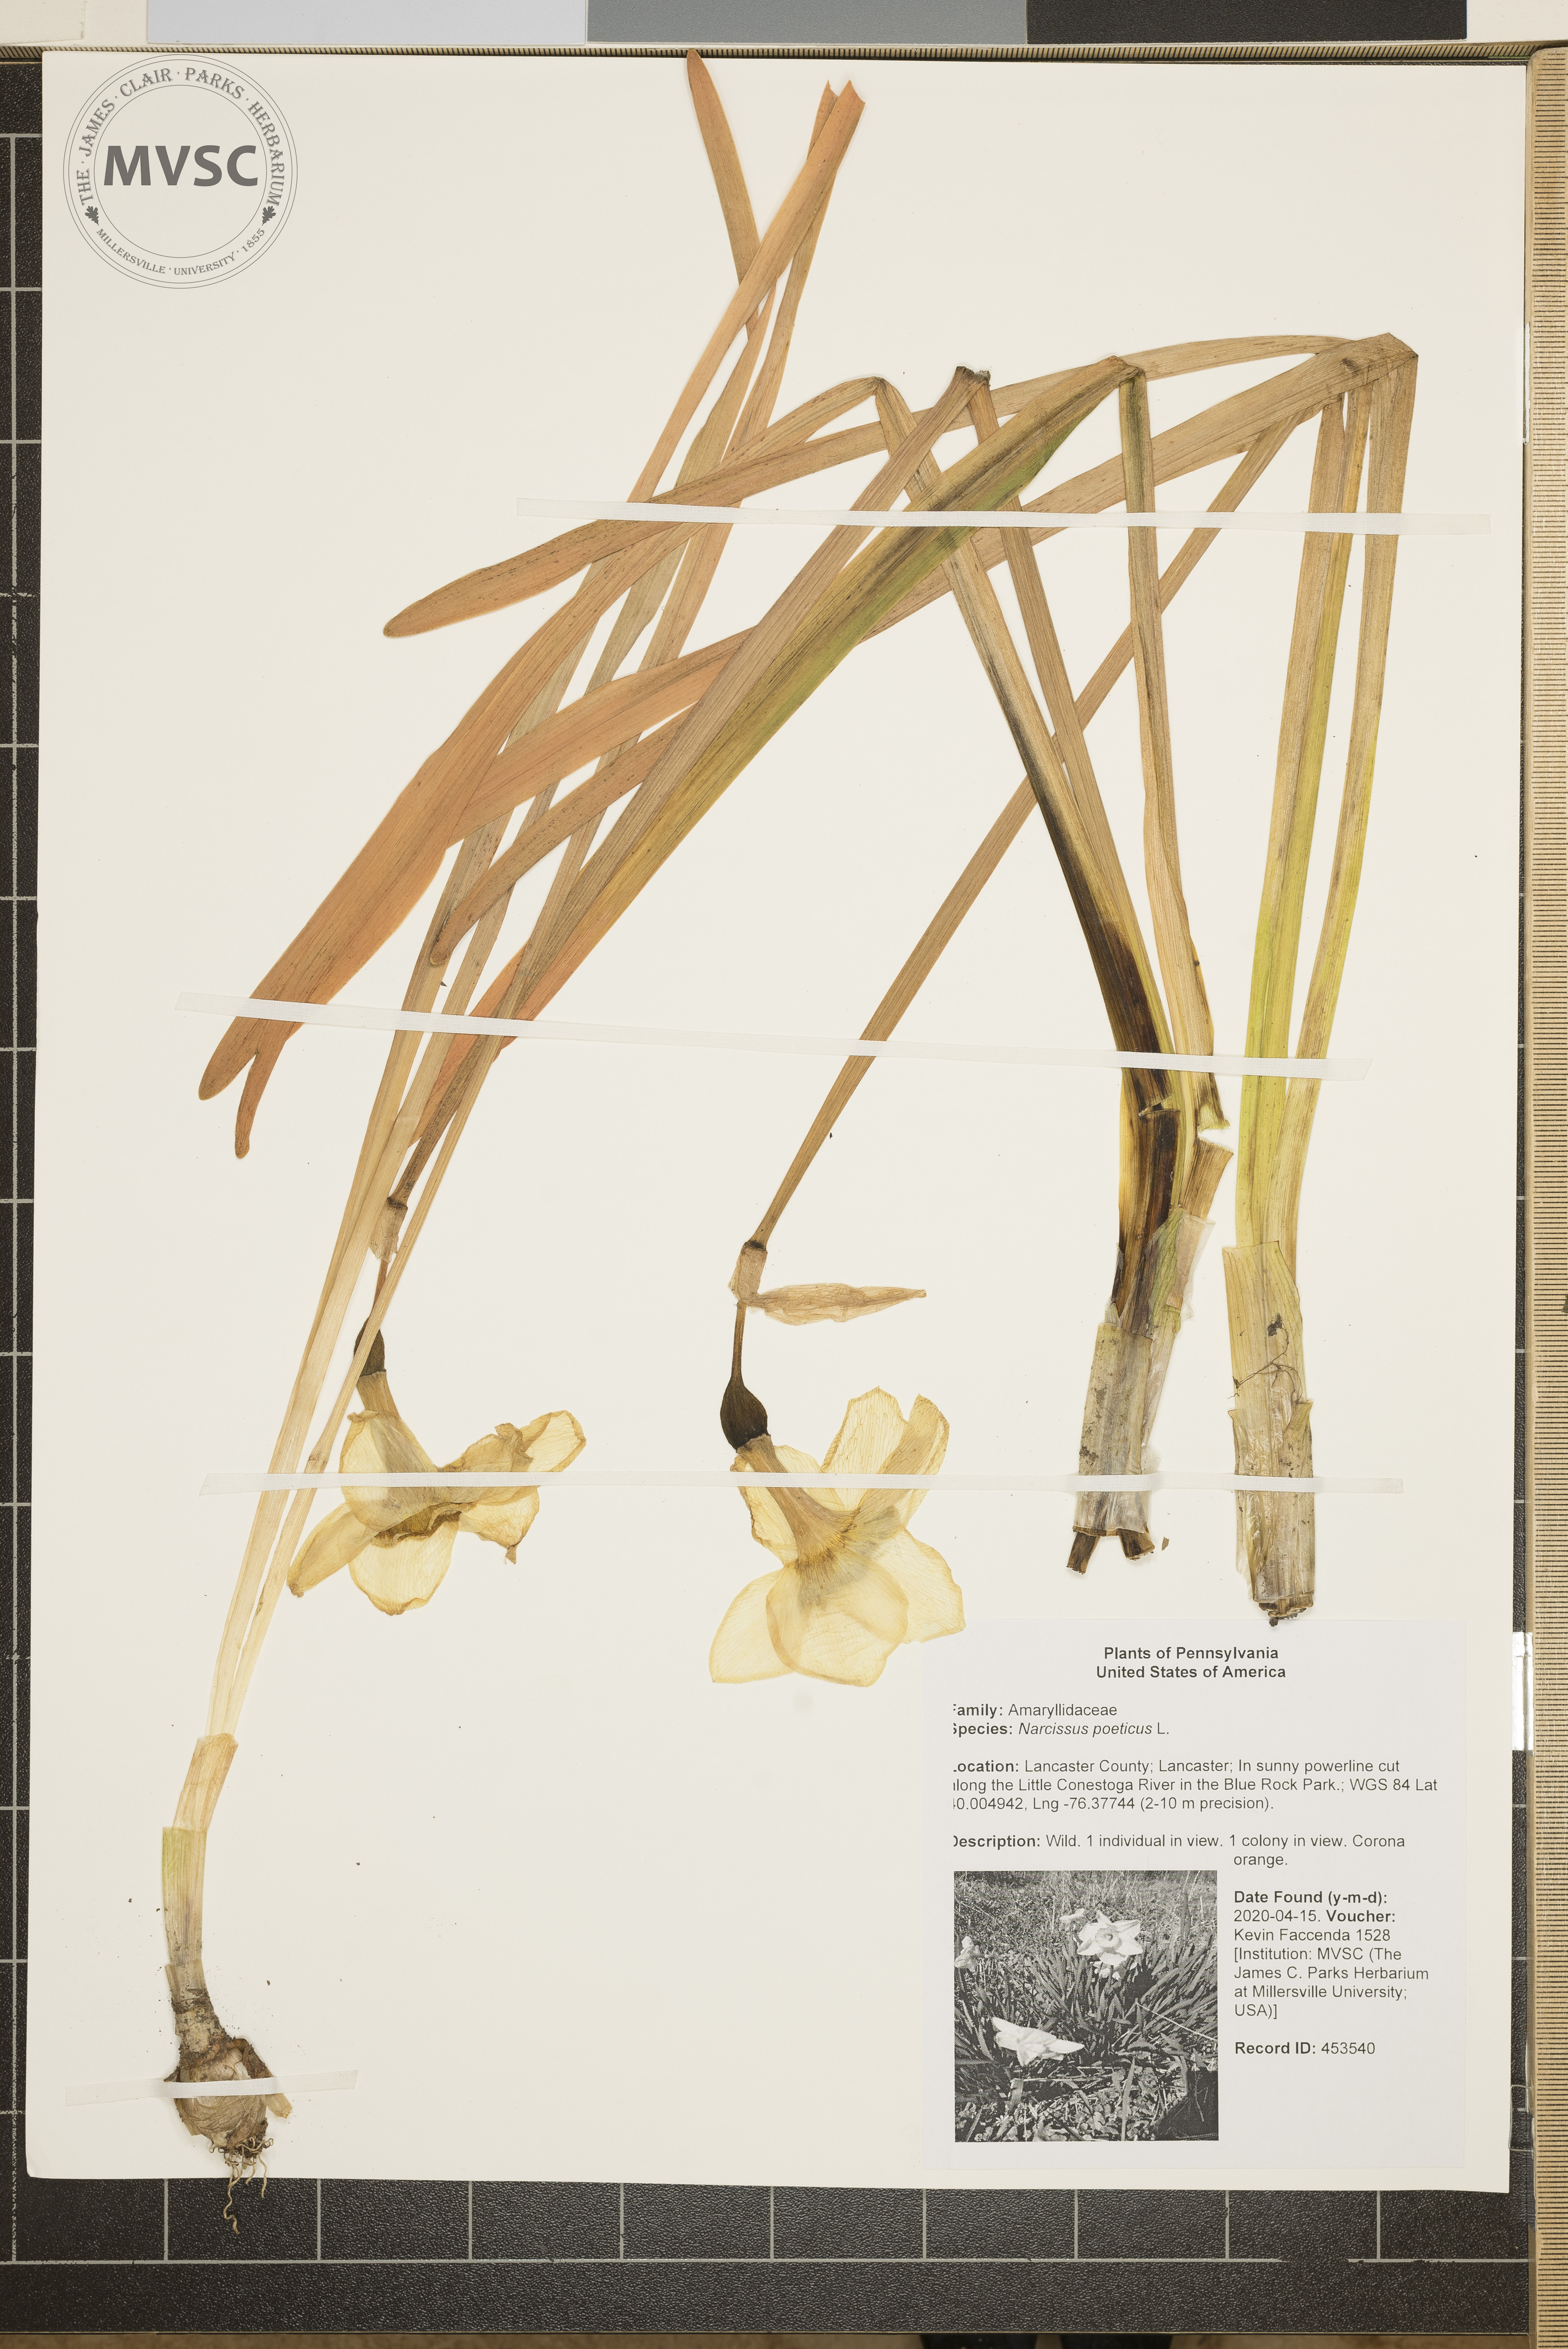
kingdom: Plantae
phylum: Tracheophyta
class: Liliopsida
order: Asparagales
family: Amaryllidaceae
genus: Narcissus
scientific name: Narcissus poeticus
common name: Pheasant's-eye daffodil
